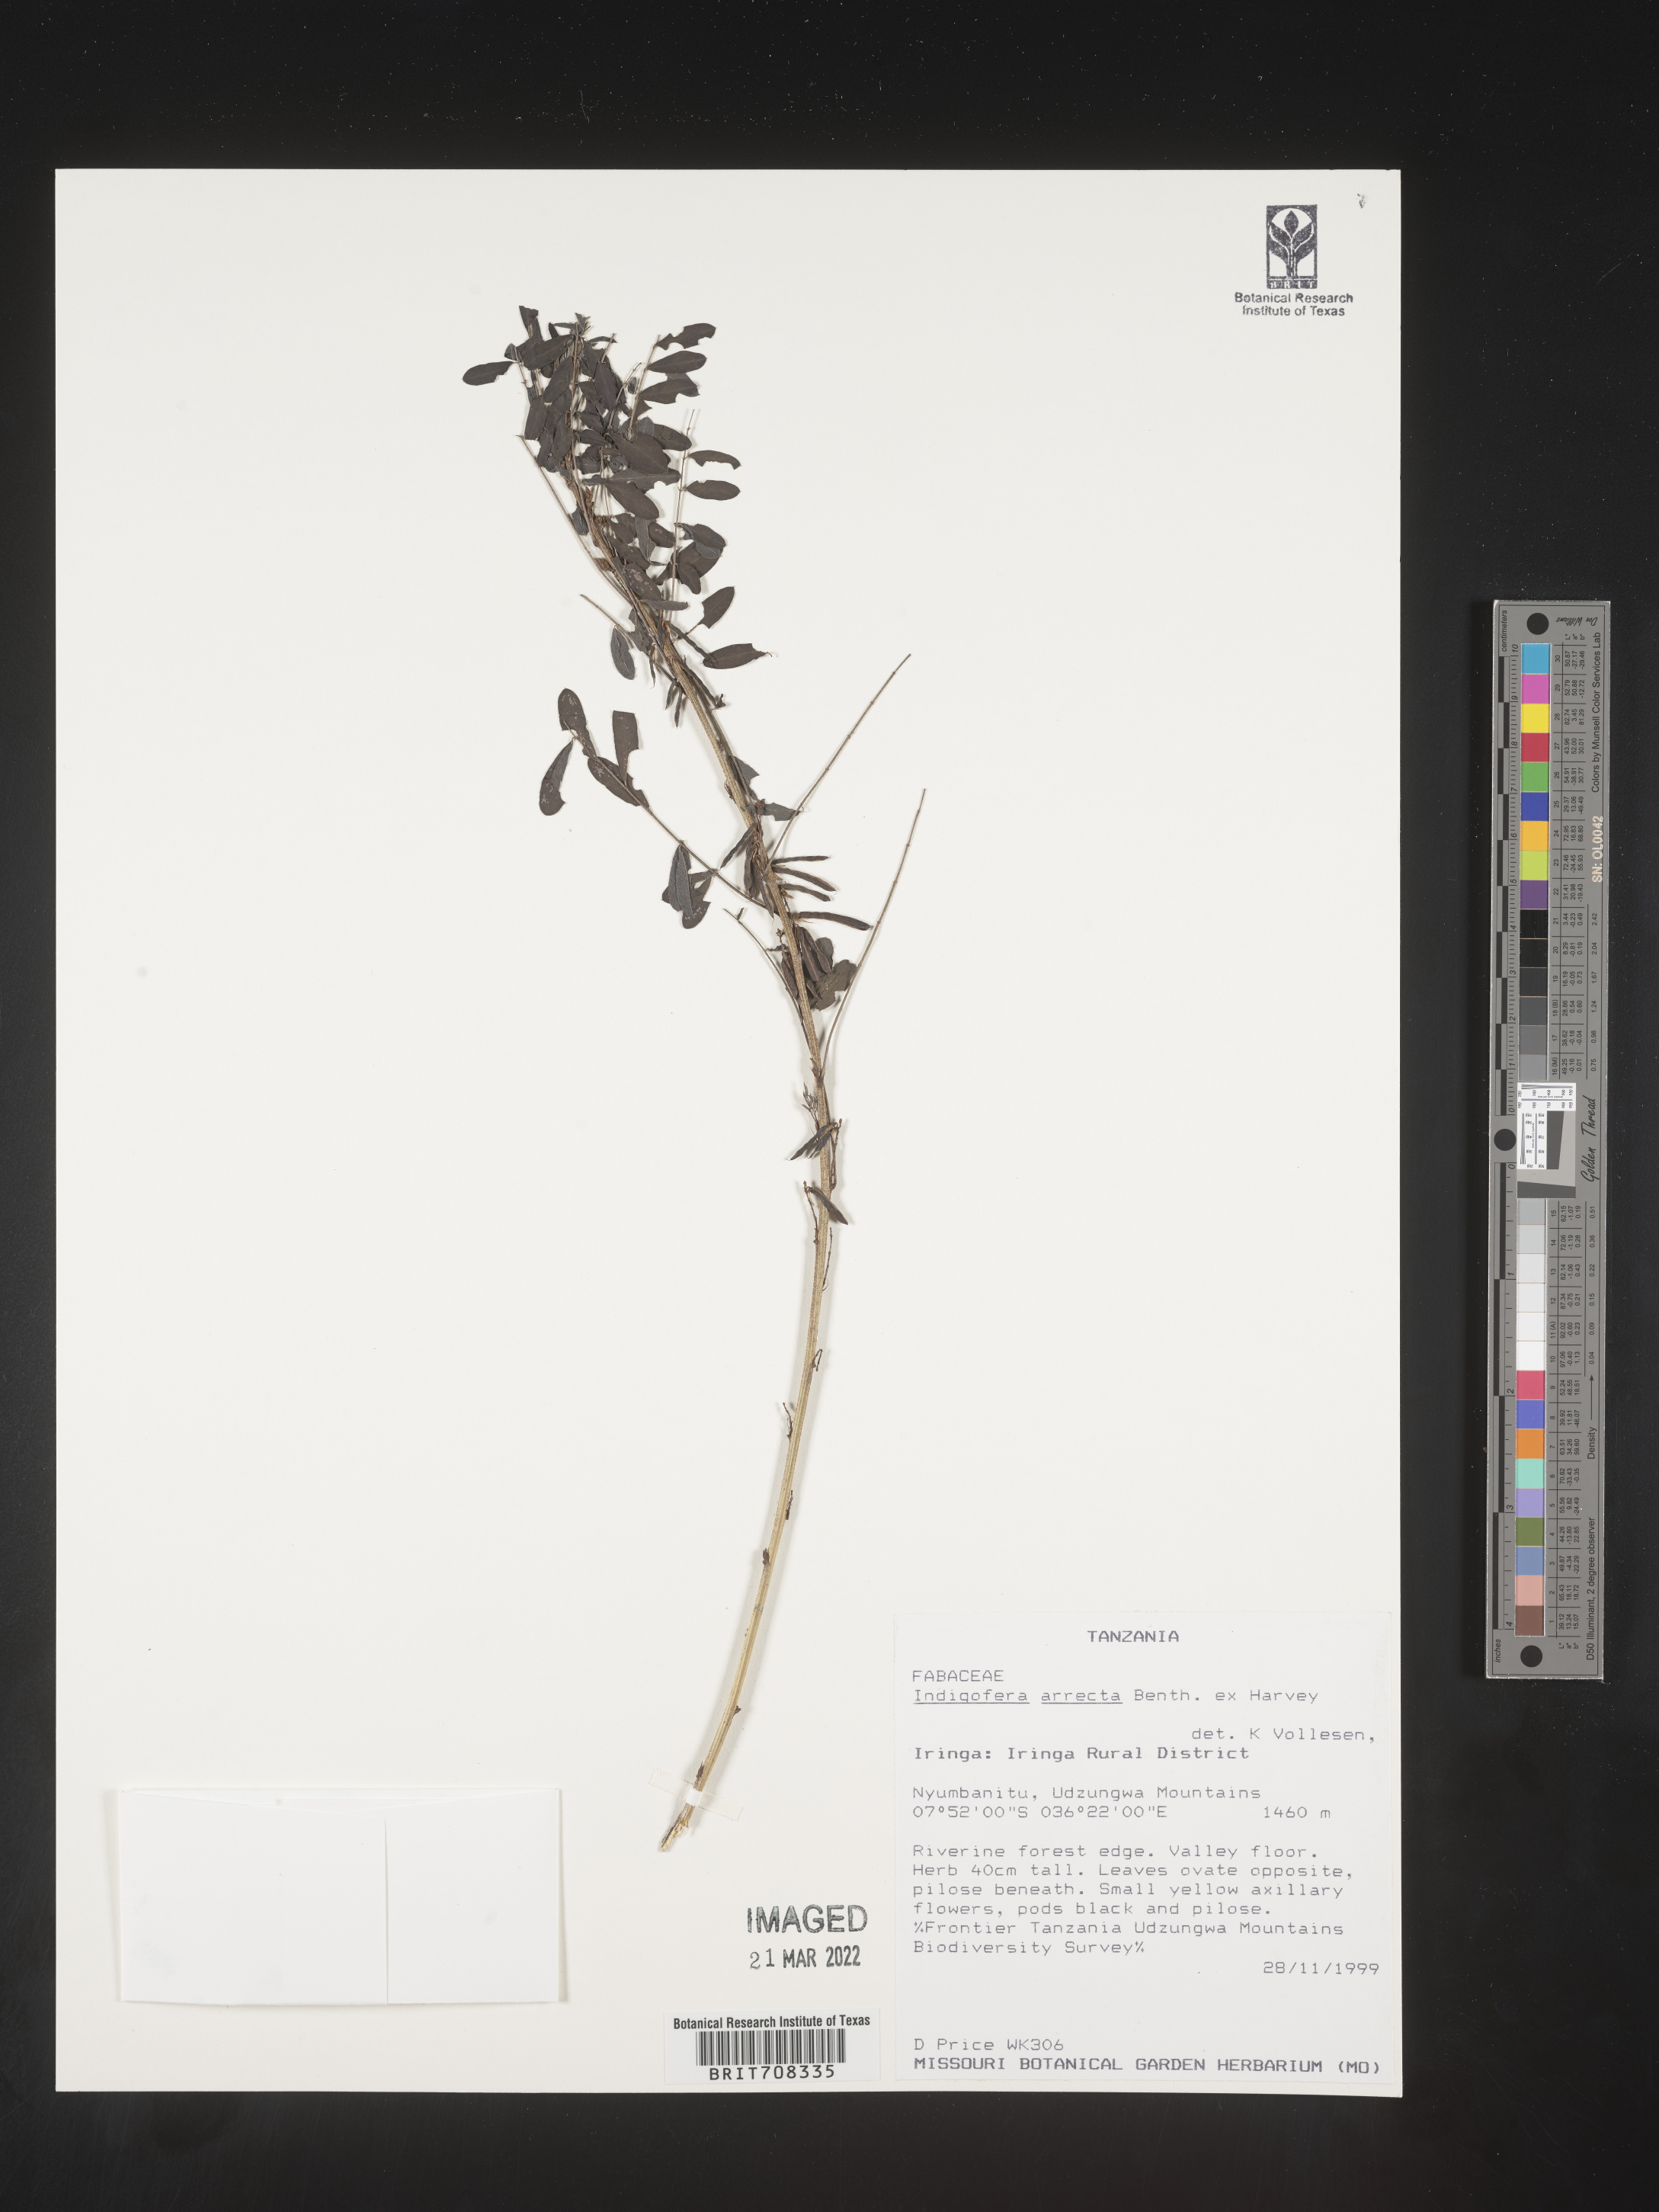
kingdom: Plantae
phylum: Tracheophyta
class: Magnoliopsida
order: Fabales
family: Fabaceae
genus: Indigofera
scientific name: Indigofera
